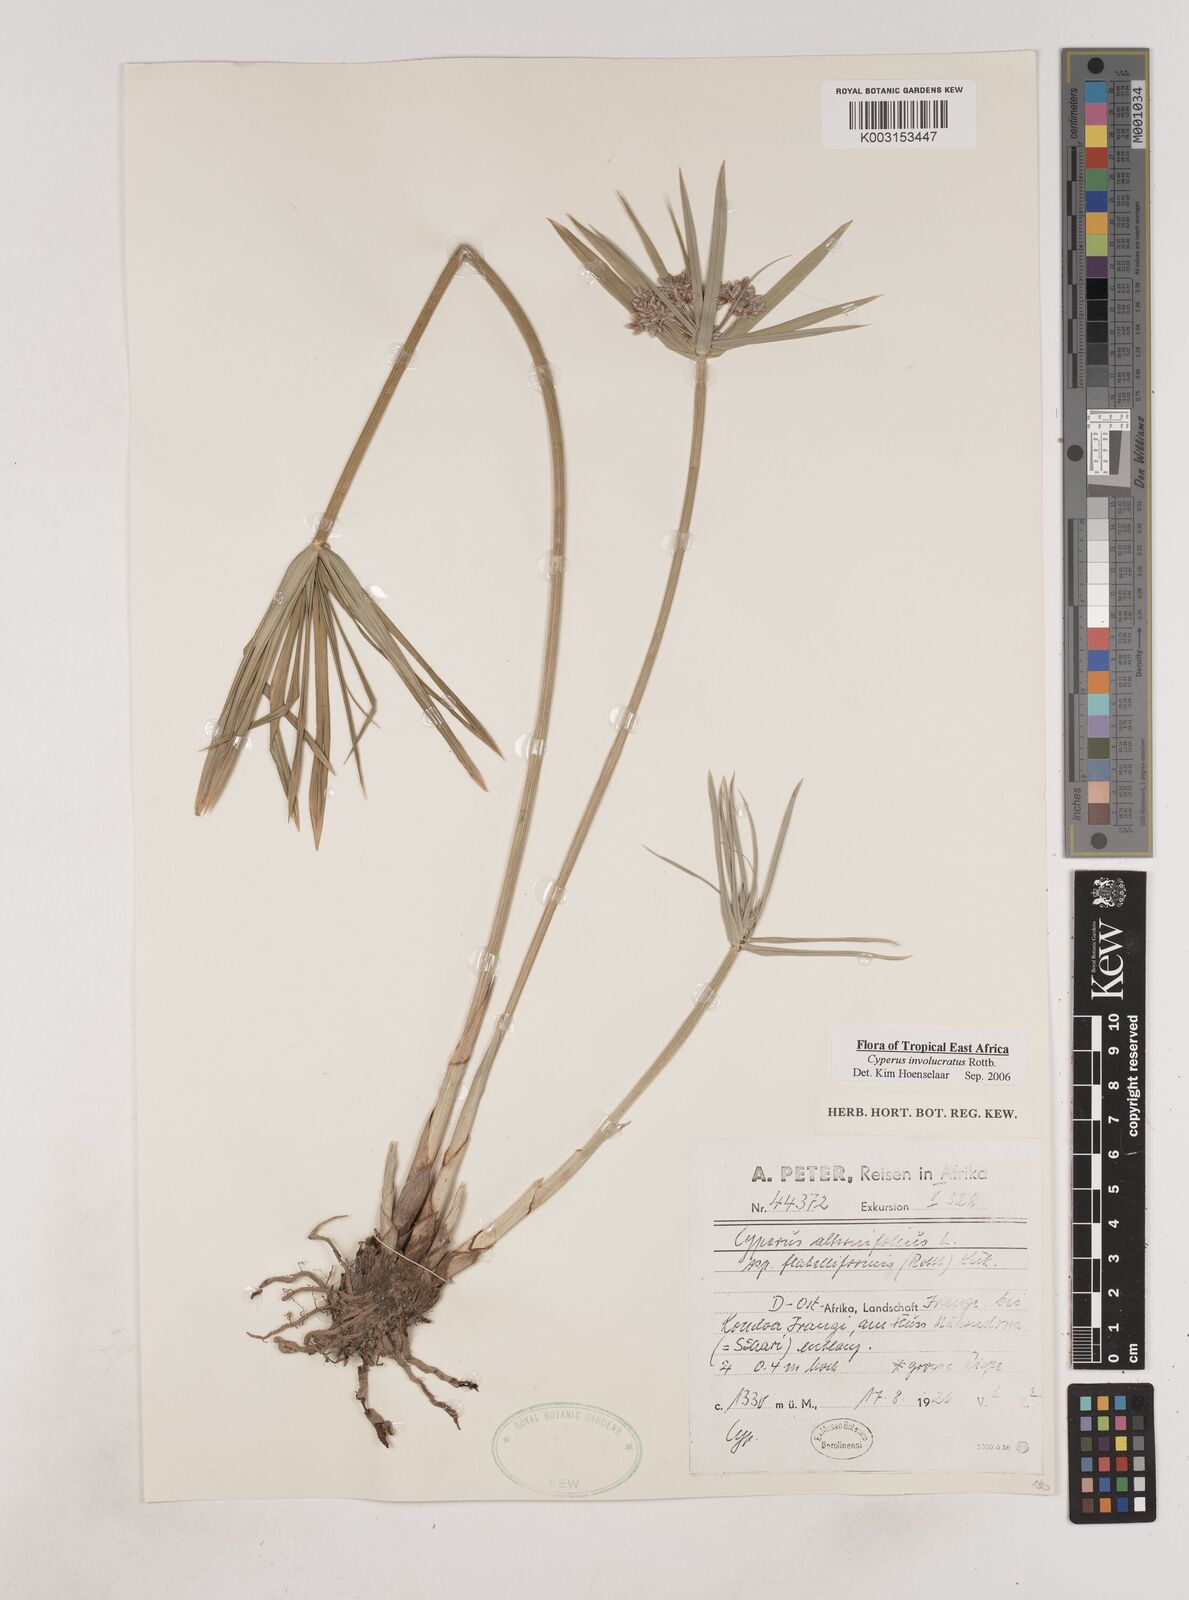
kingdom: Plantae
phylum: Tracheophyta
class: Liliopsida
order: Poales
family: Cyperaceae
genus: Cyperus
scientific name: Cyperus alternifolius
